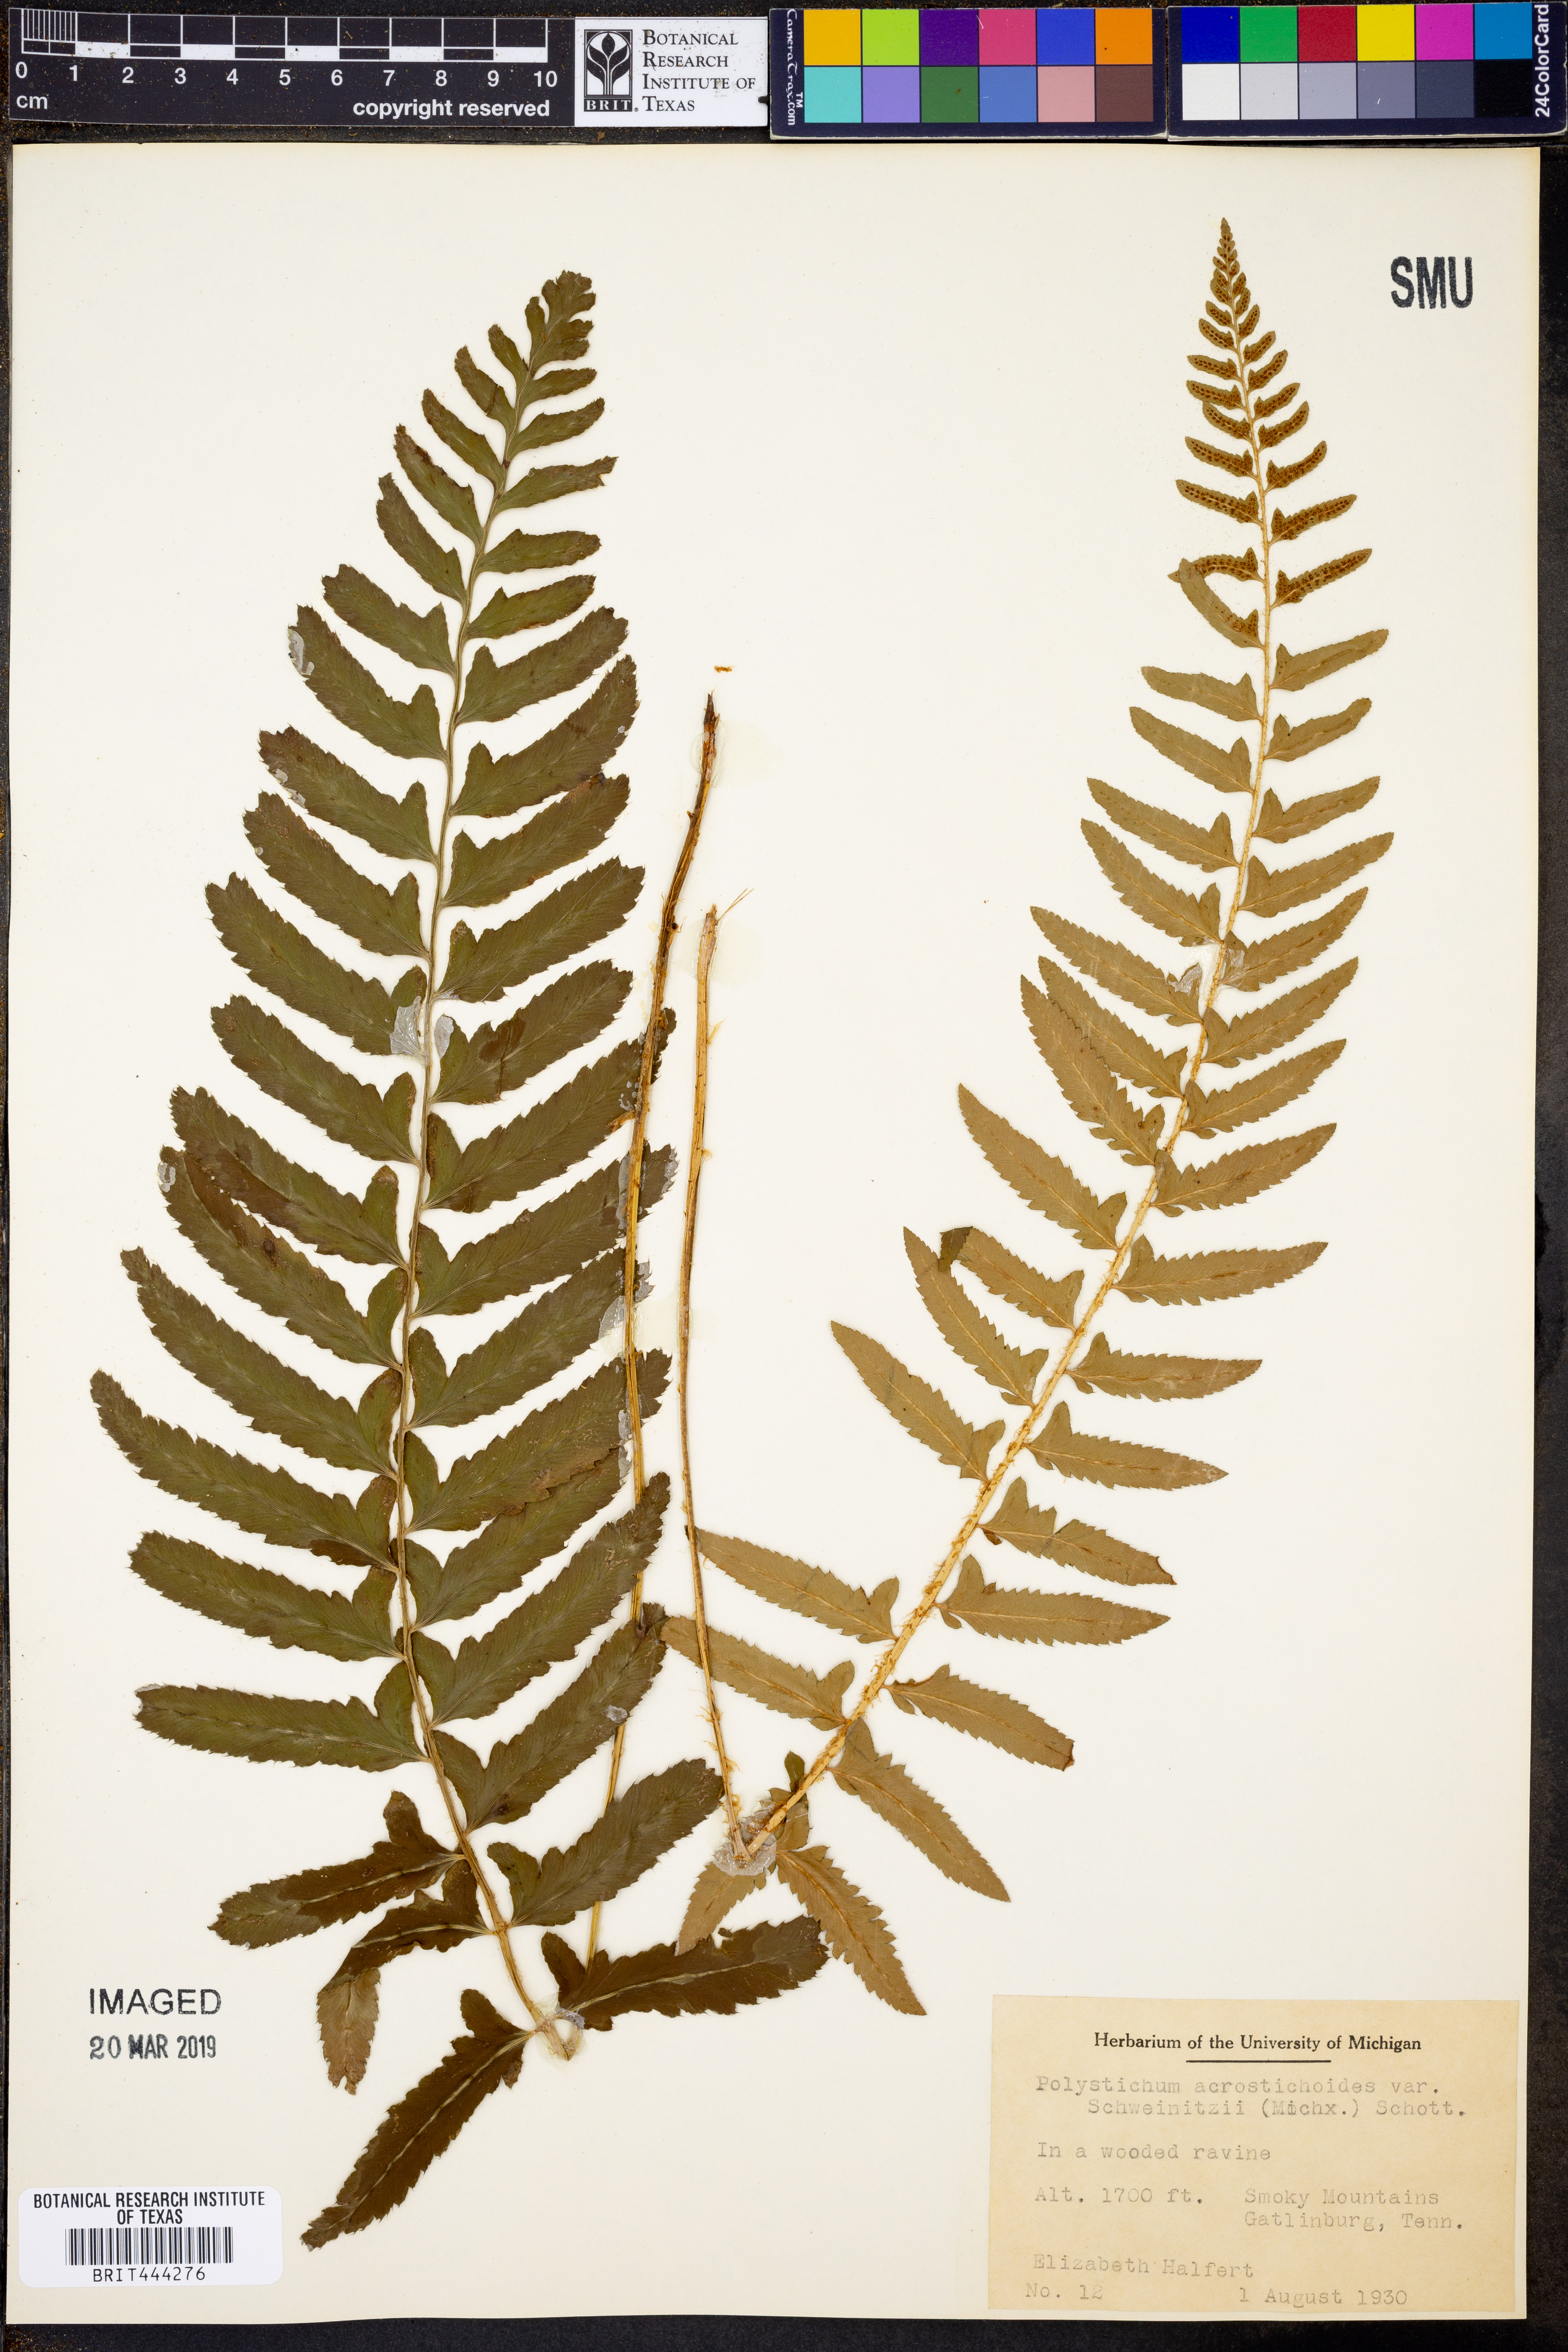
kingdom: Plantae
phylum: Tracheophyta
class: Polypodiopsida
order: Polypodiales
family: Dryopteridaceae
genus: Polystichum
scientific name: Polystichum acrostichoides
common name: Christmas fern
